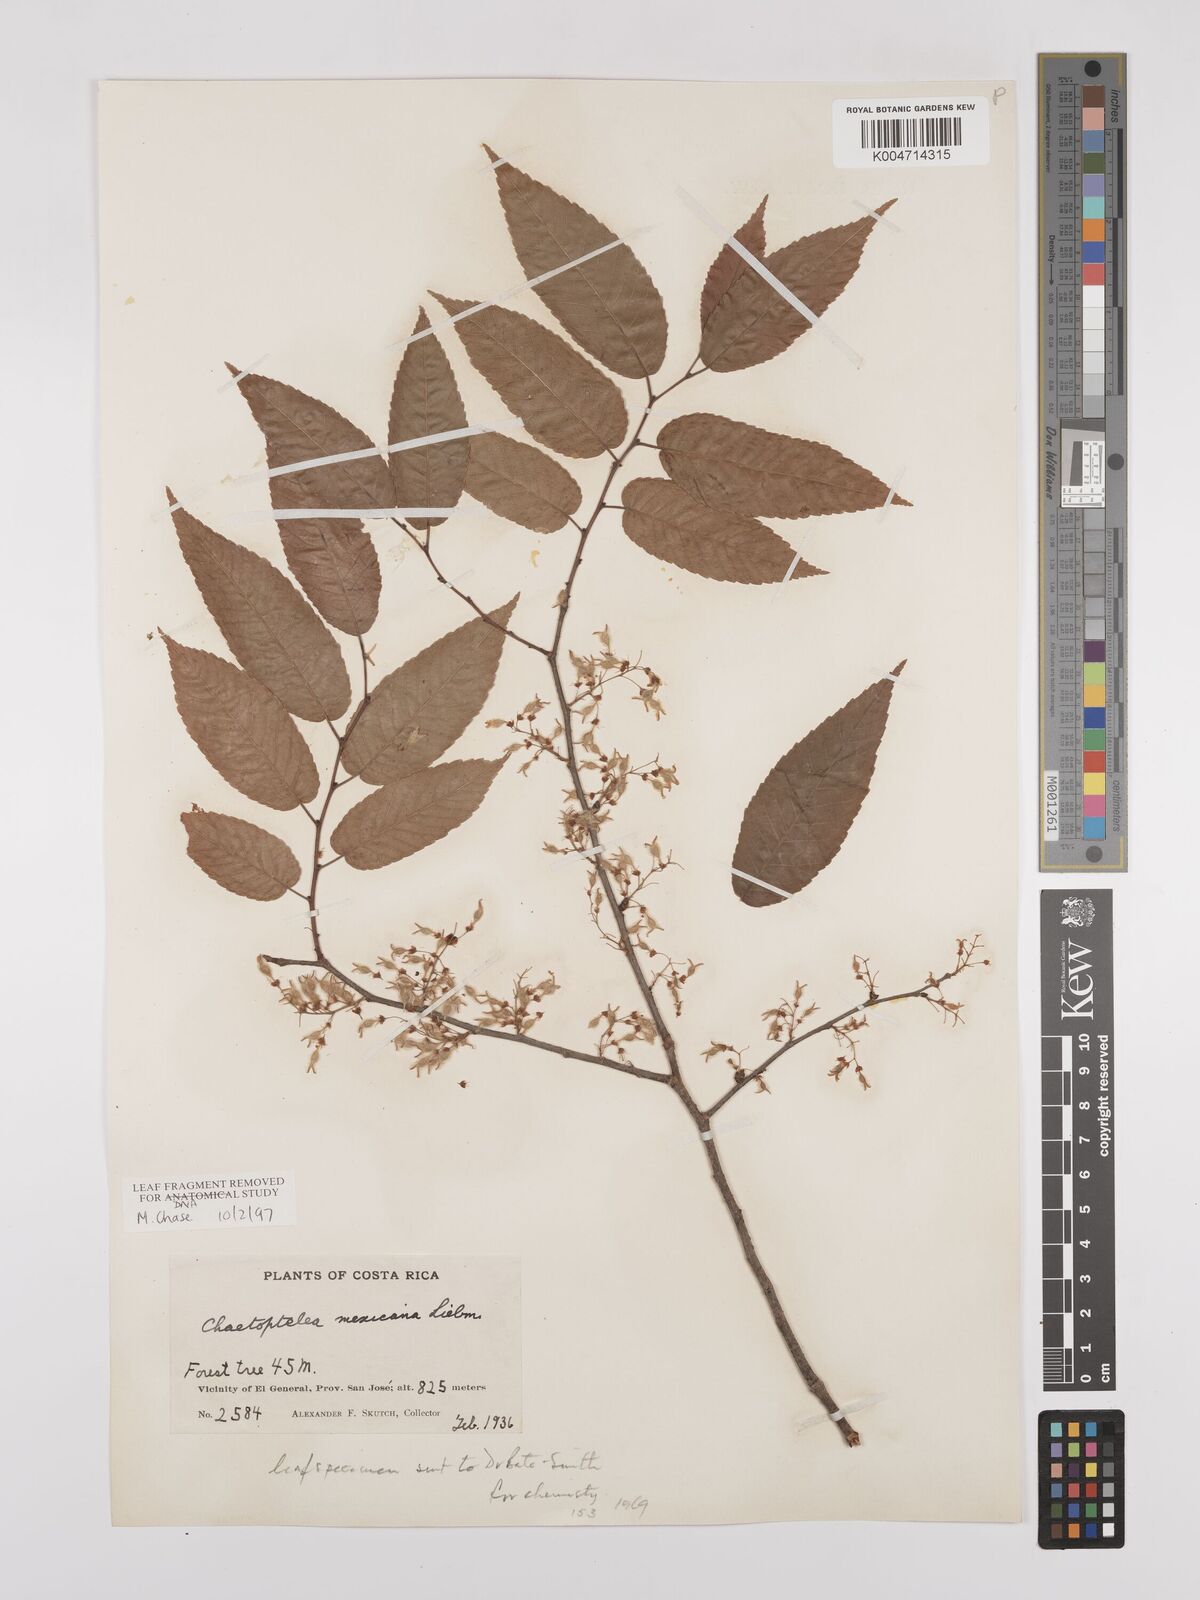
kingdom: Plantae
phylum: Tracheophyta
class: Magnoliopsida
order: Rosales
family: Ulmaceae
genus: Ulmus
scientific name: Ulmus mexicana
